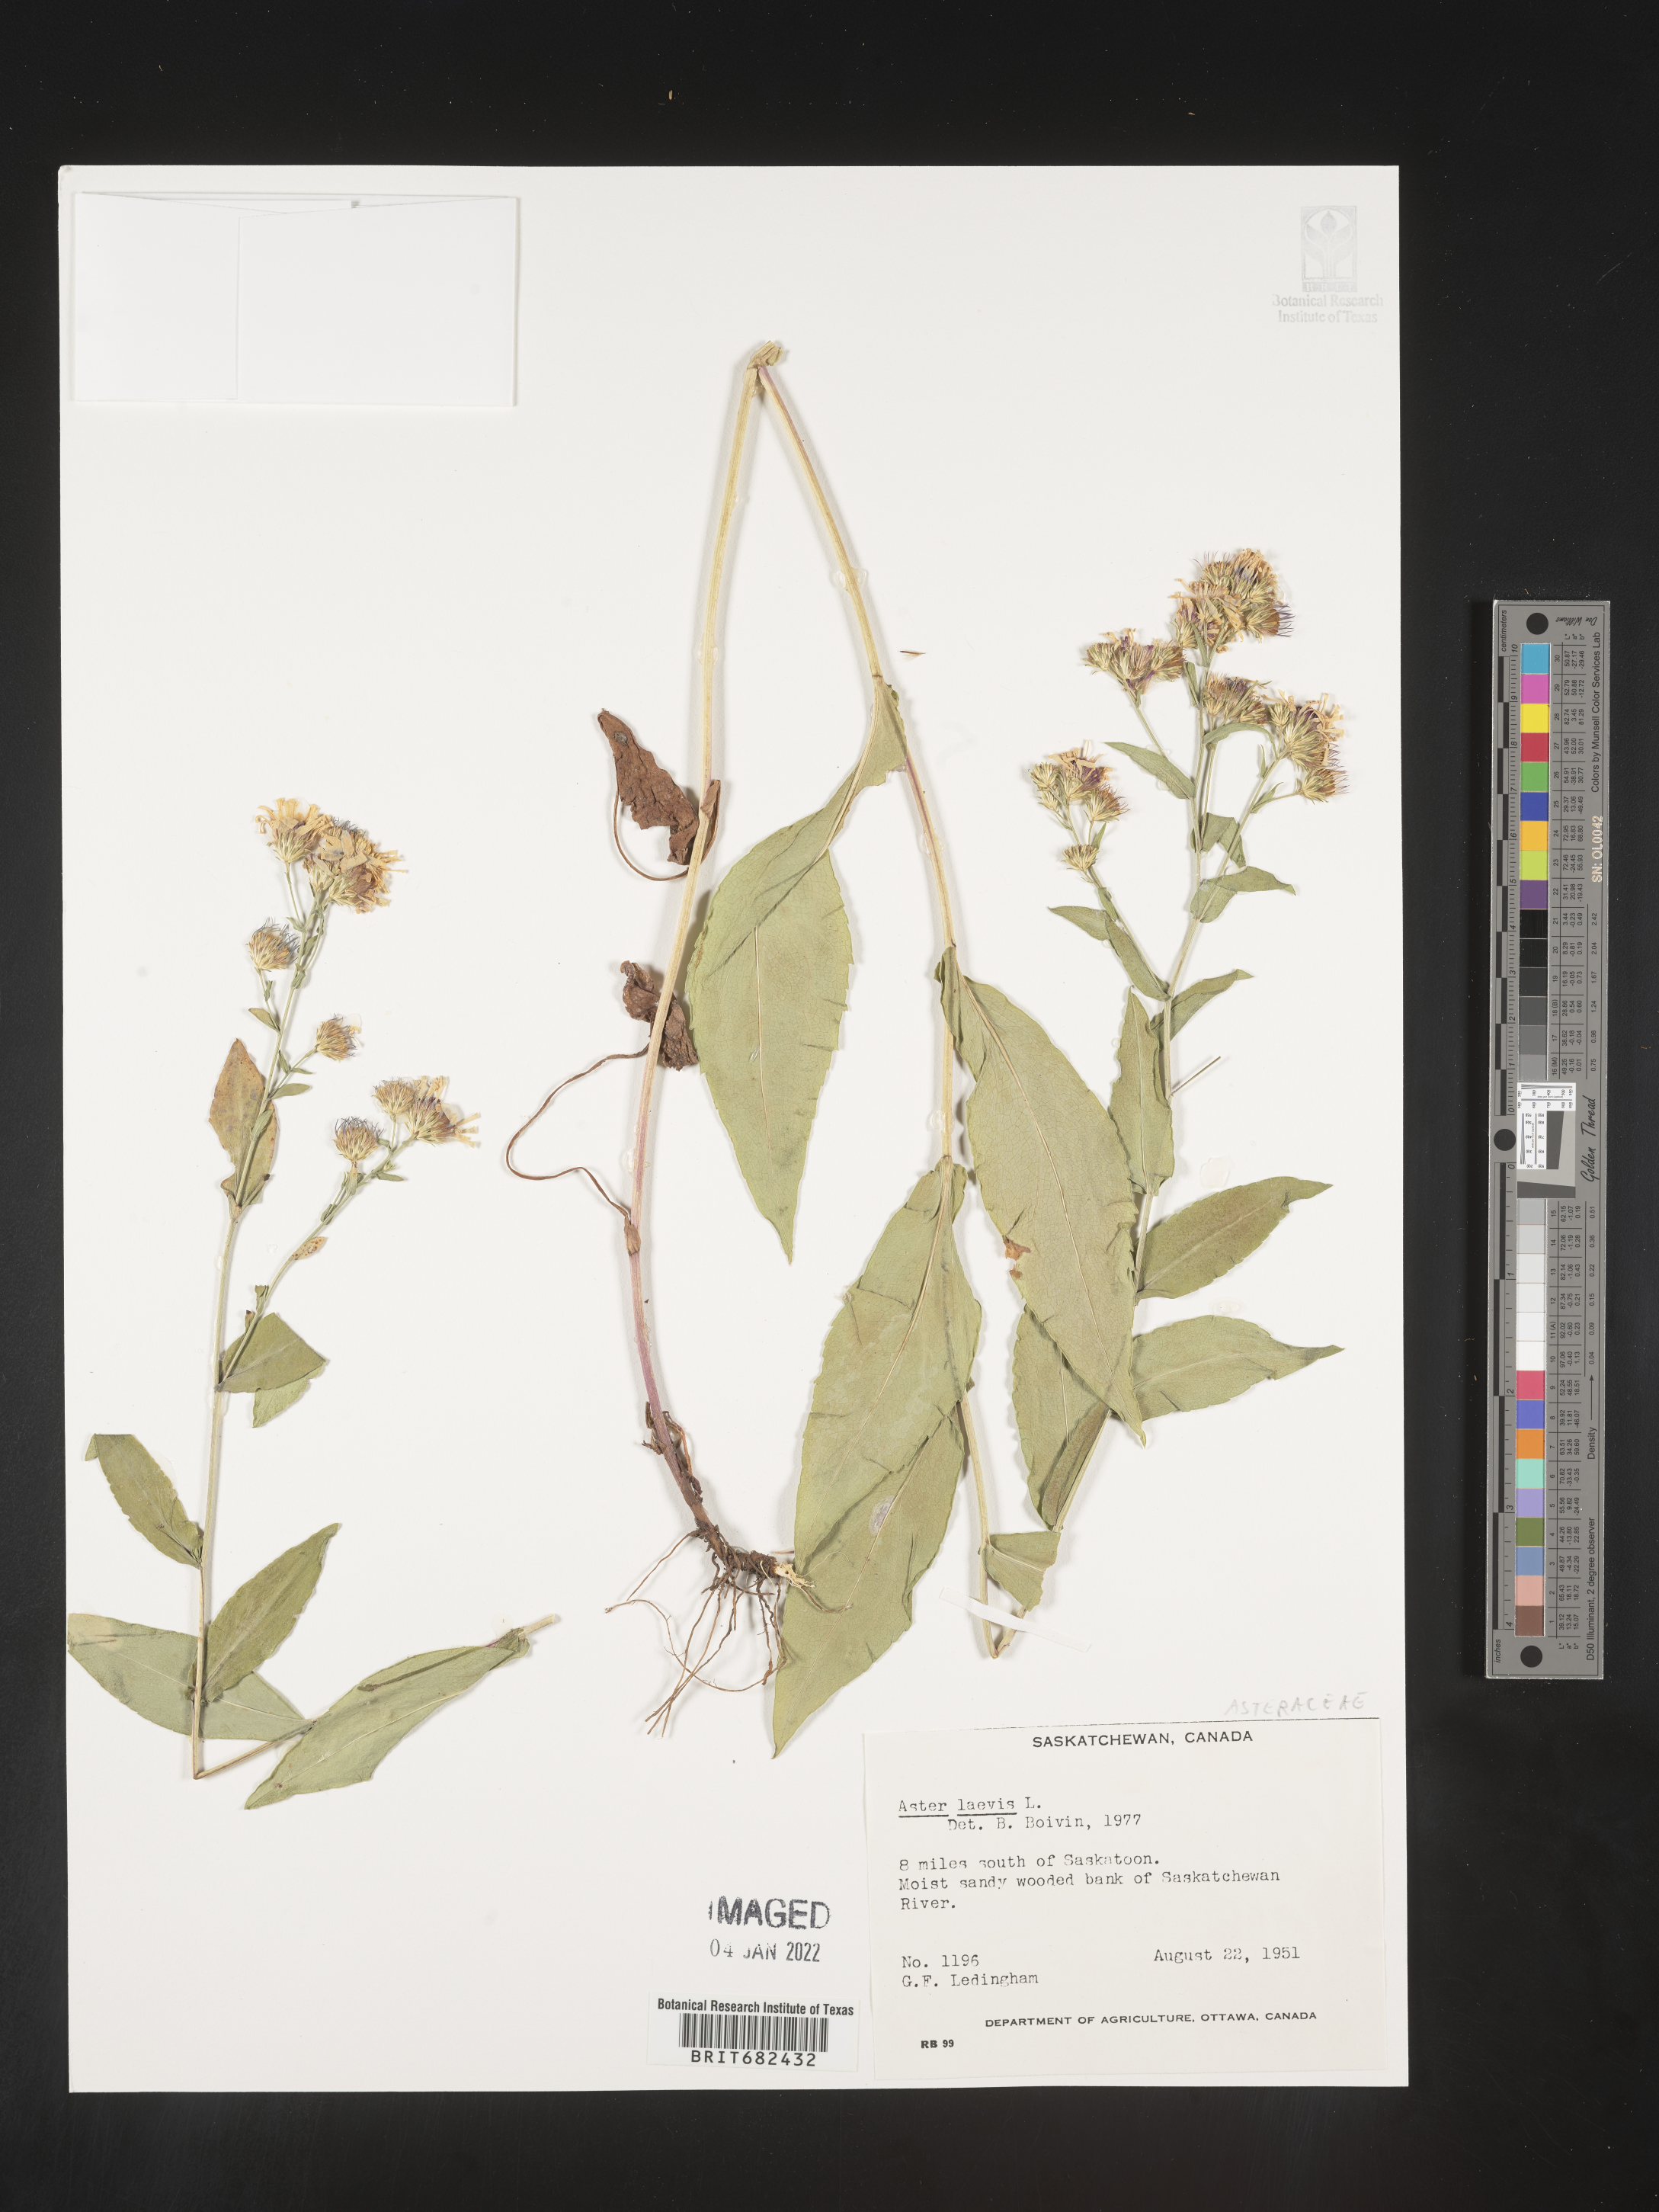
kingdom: Plantae
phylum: Tracheophyta
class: Magnoliopsida
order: Asterales
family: Asteraceae
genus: Aster
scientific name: Aster
